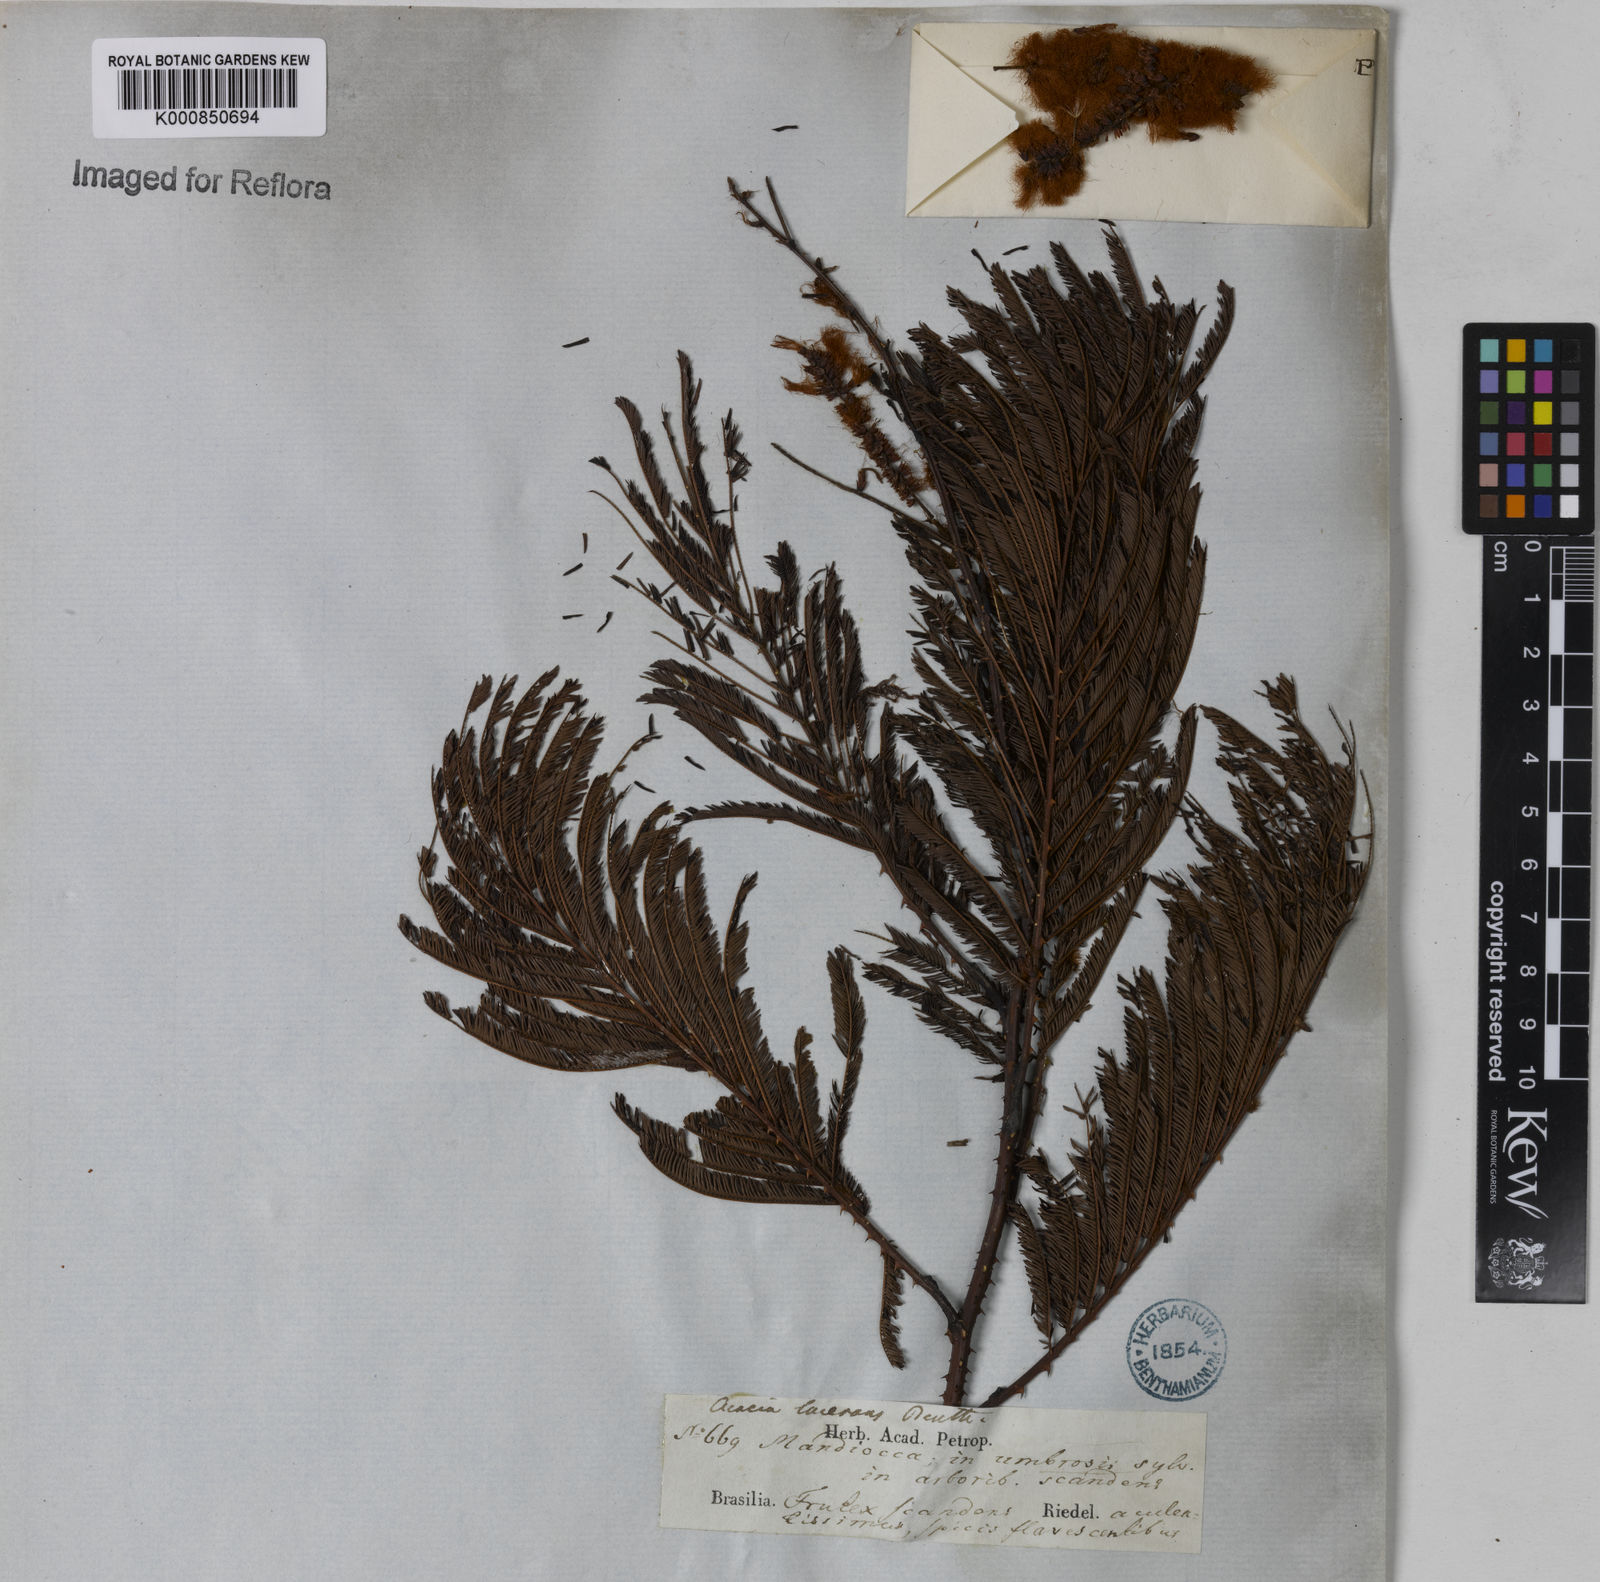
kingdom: Plantae
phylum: Tracheophyta
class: Magnoliopsida
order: Fabales
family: Fabaceae
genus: Senegalia
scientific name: Senegalia lacerans
